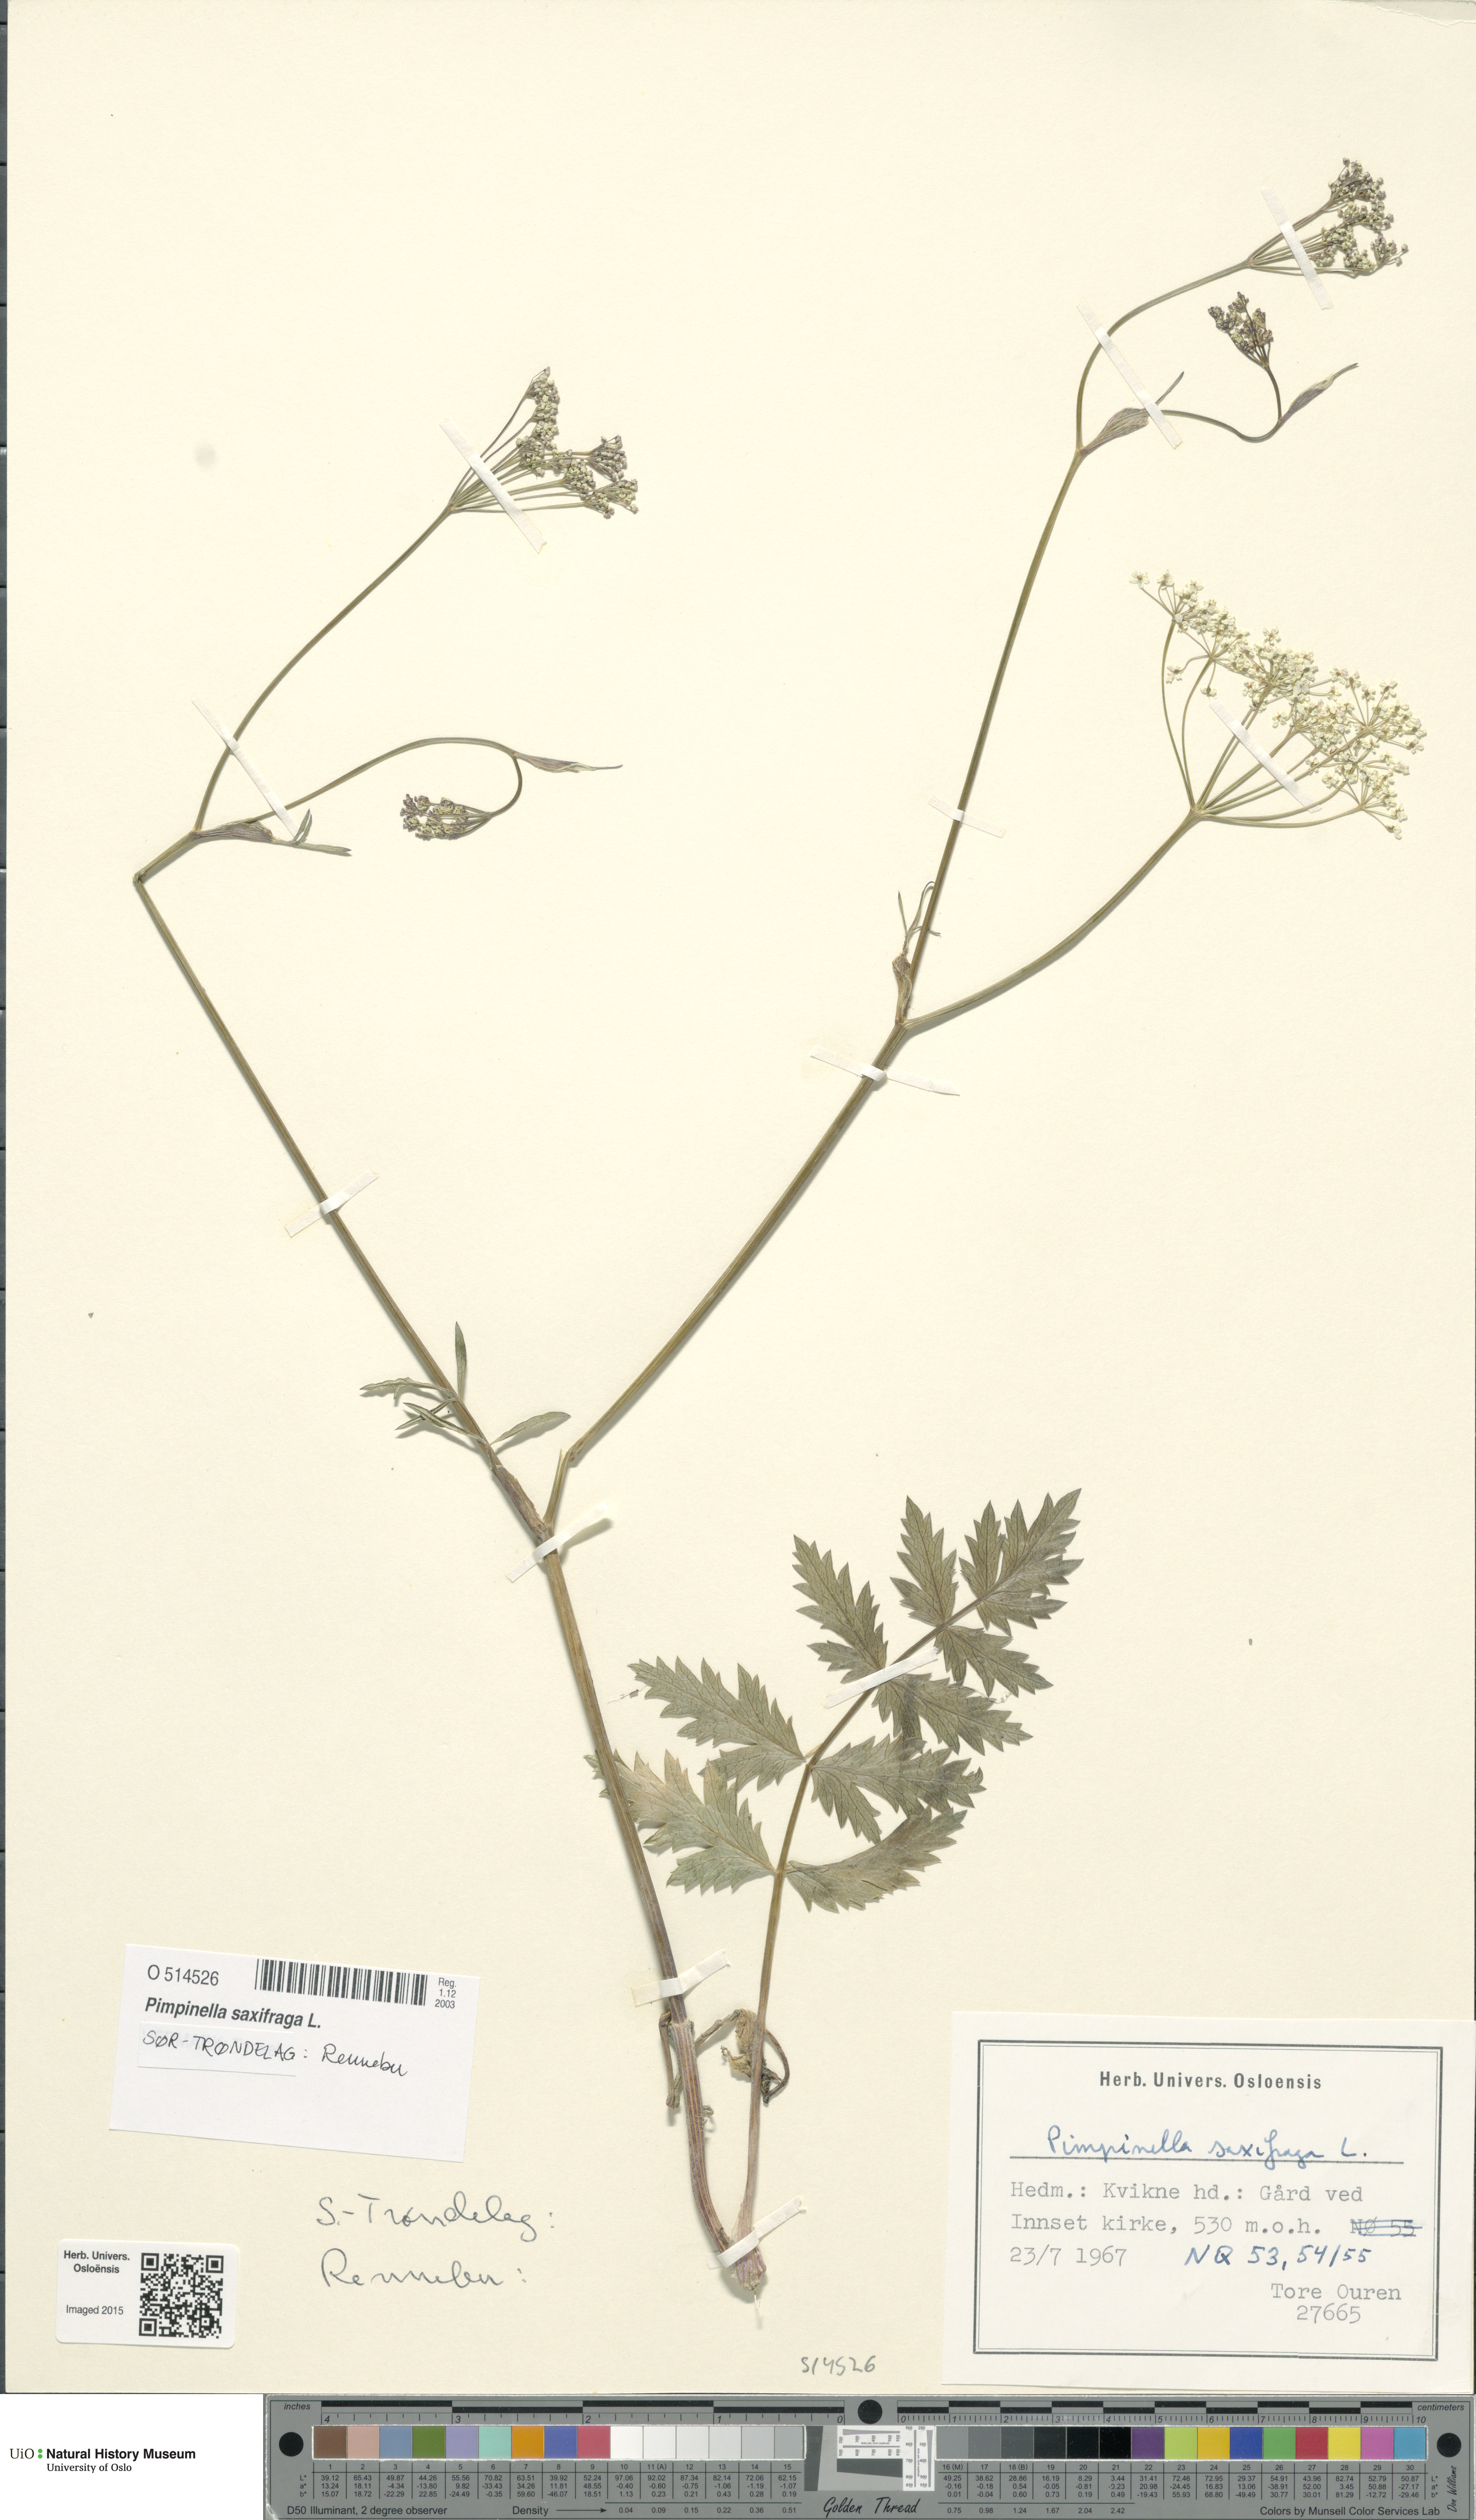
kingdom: Plantae
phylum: Tracheophyta
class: Magnoliopsida
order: Apiales
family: Apiaceae
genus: Pimpinella
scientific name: Pimpinella saxifraga
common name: Burnet-saxifrage
